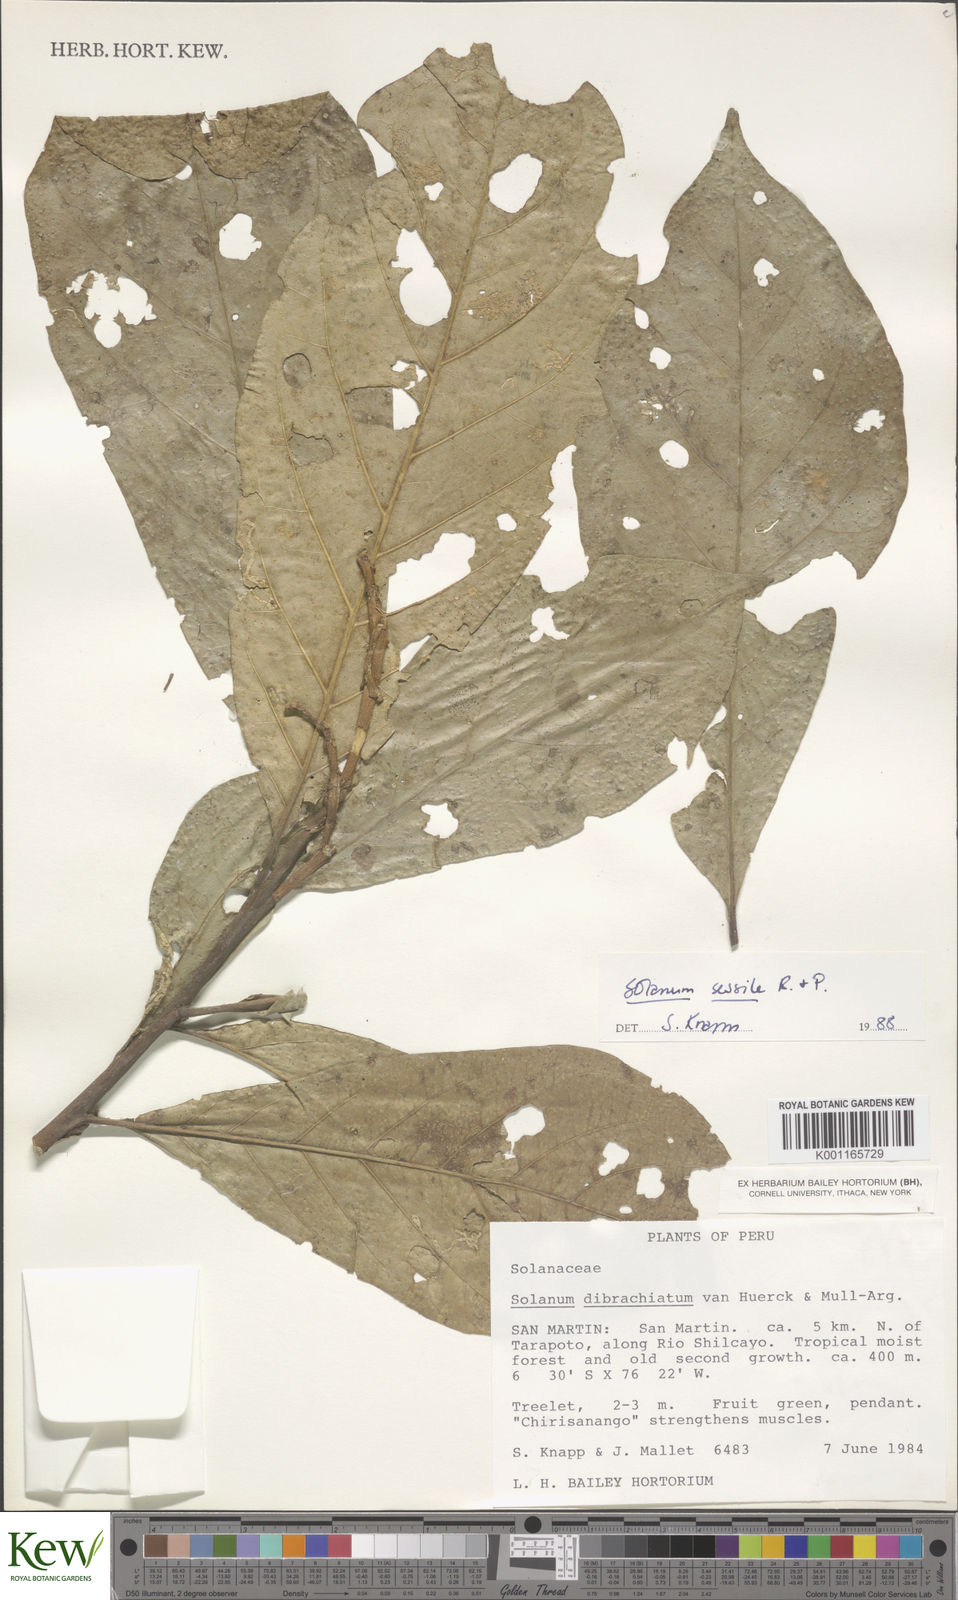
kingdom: Plantae
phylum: Tracheophyta
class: Magnoliopsida
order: Solanales
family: Solanaceae
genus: Solanum
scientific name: Solanum sessile
